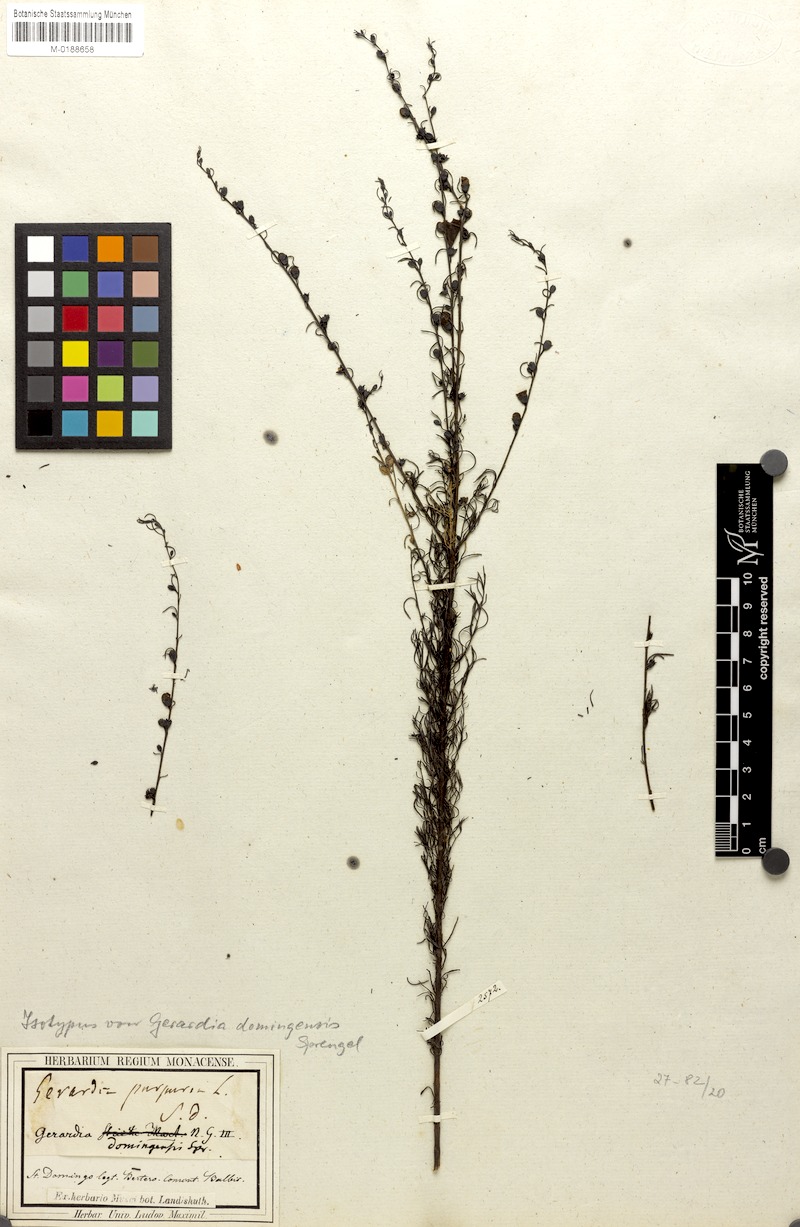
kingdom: Plantae
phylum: Tracheophyta
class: Magnoliopsida
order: Lamiales
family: Orobanchaceae
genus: Agalinis
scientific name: Agalinis fasciculata
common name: Beach false foxglove
